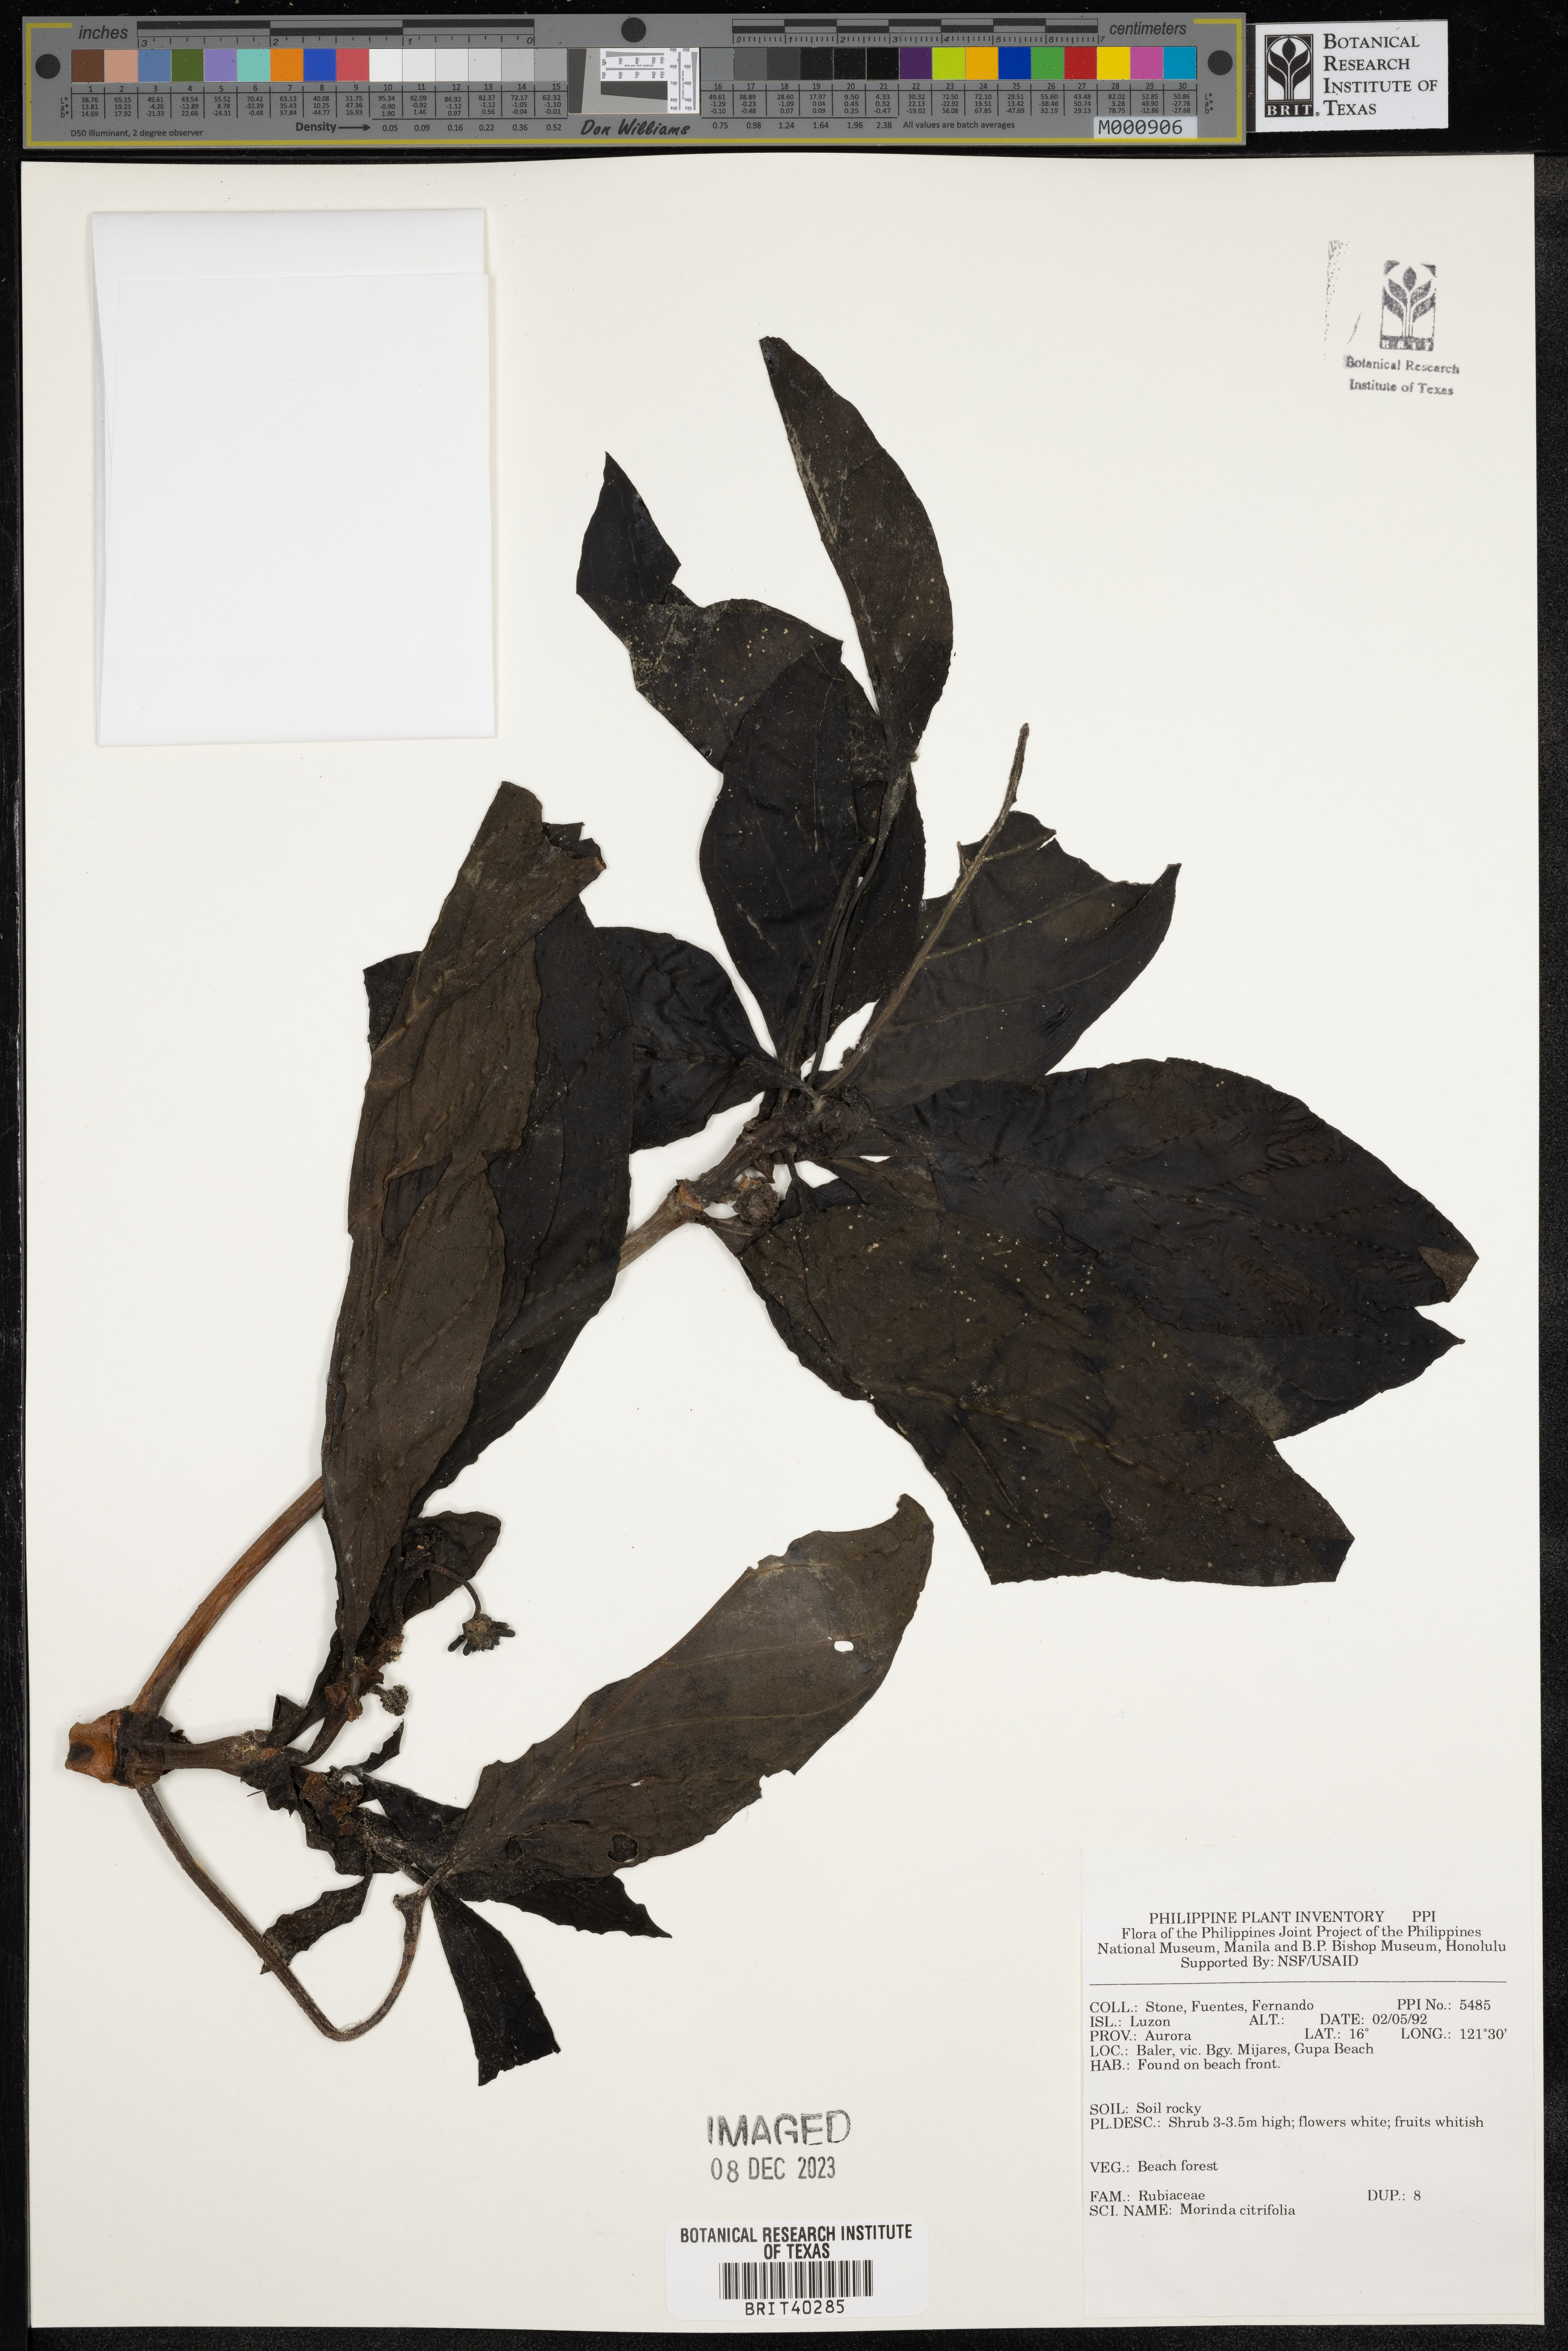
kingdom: Plantae
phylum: Tracheophyta
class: Magnoliopsida
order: Gentianales
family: Rubiaceae
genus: Morinda
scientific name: Morinda citrifolia
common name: Indian-mulberry
